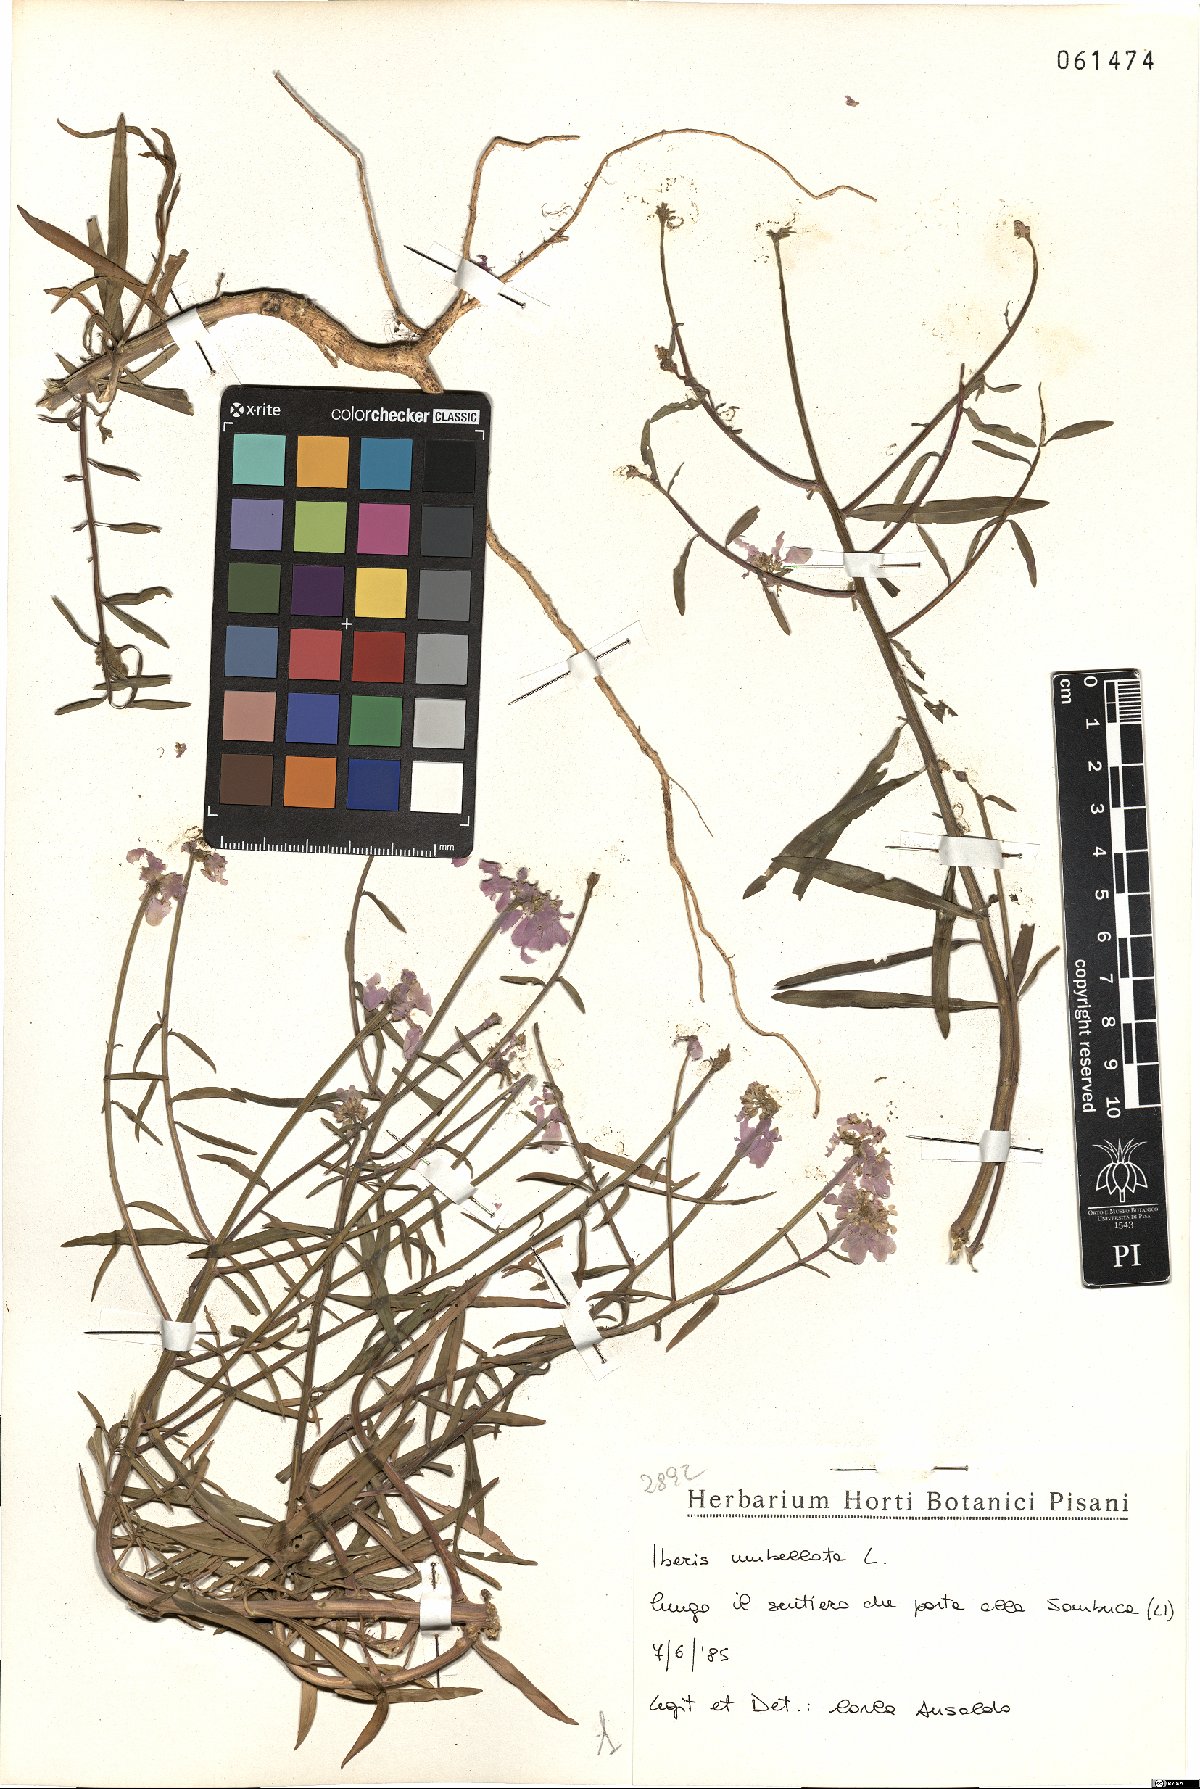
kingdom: Plantae
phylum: Tracheophyta
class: Magnoliopsida
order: Brassicales
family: Brassicaceae
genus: Iberis
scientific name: Iberis umbellata
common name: Globe candytuft
